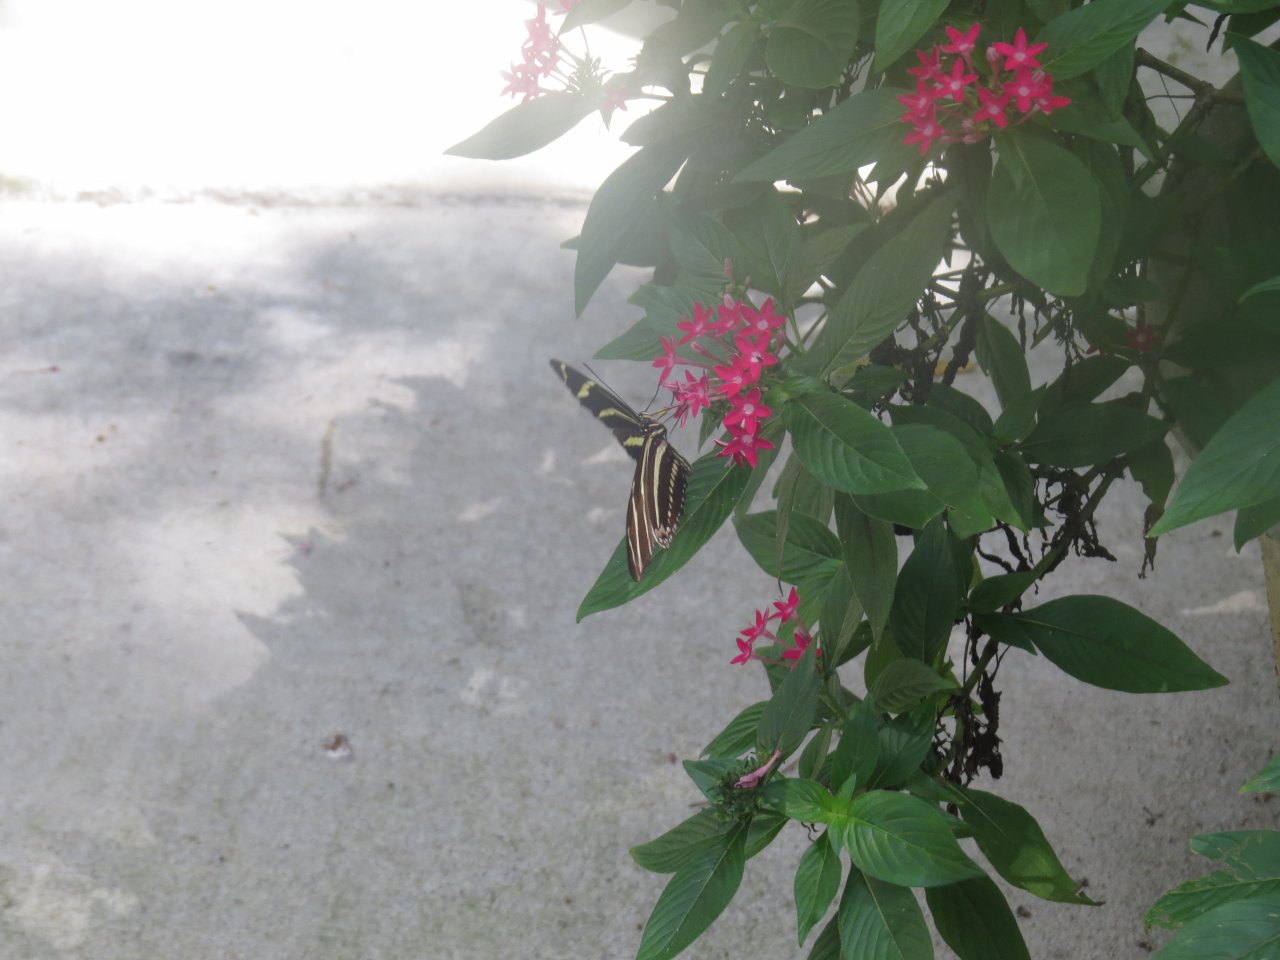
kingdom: Animalia
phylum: Arthropoda
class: Insecta
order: Lepidoptera
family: Nymphalidae
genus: Heliconius
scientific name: Heliconius charithonia
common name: Zebra Longwing
